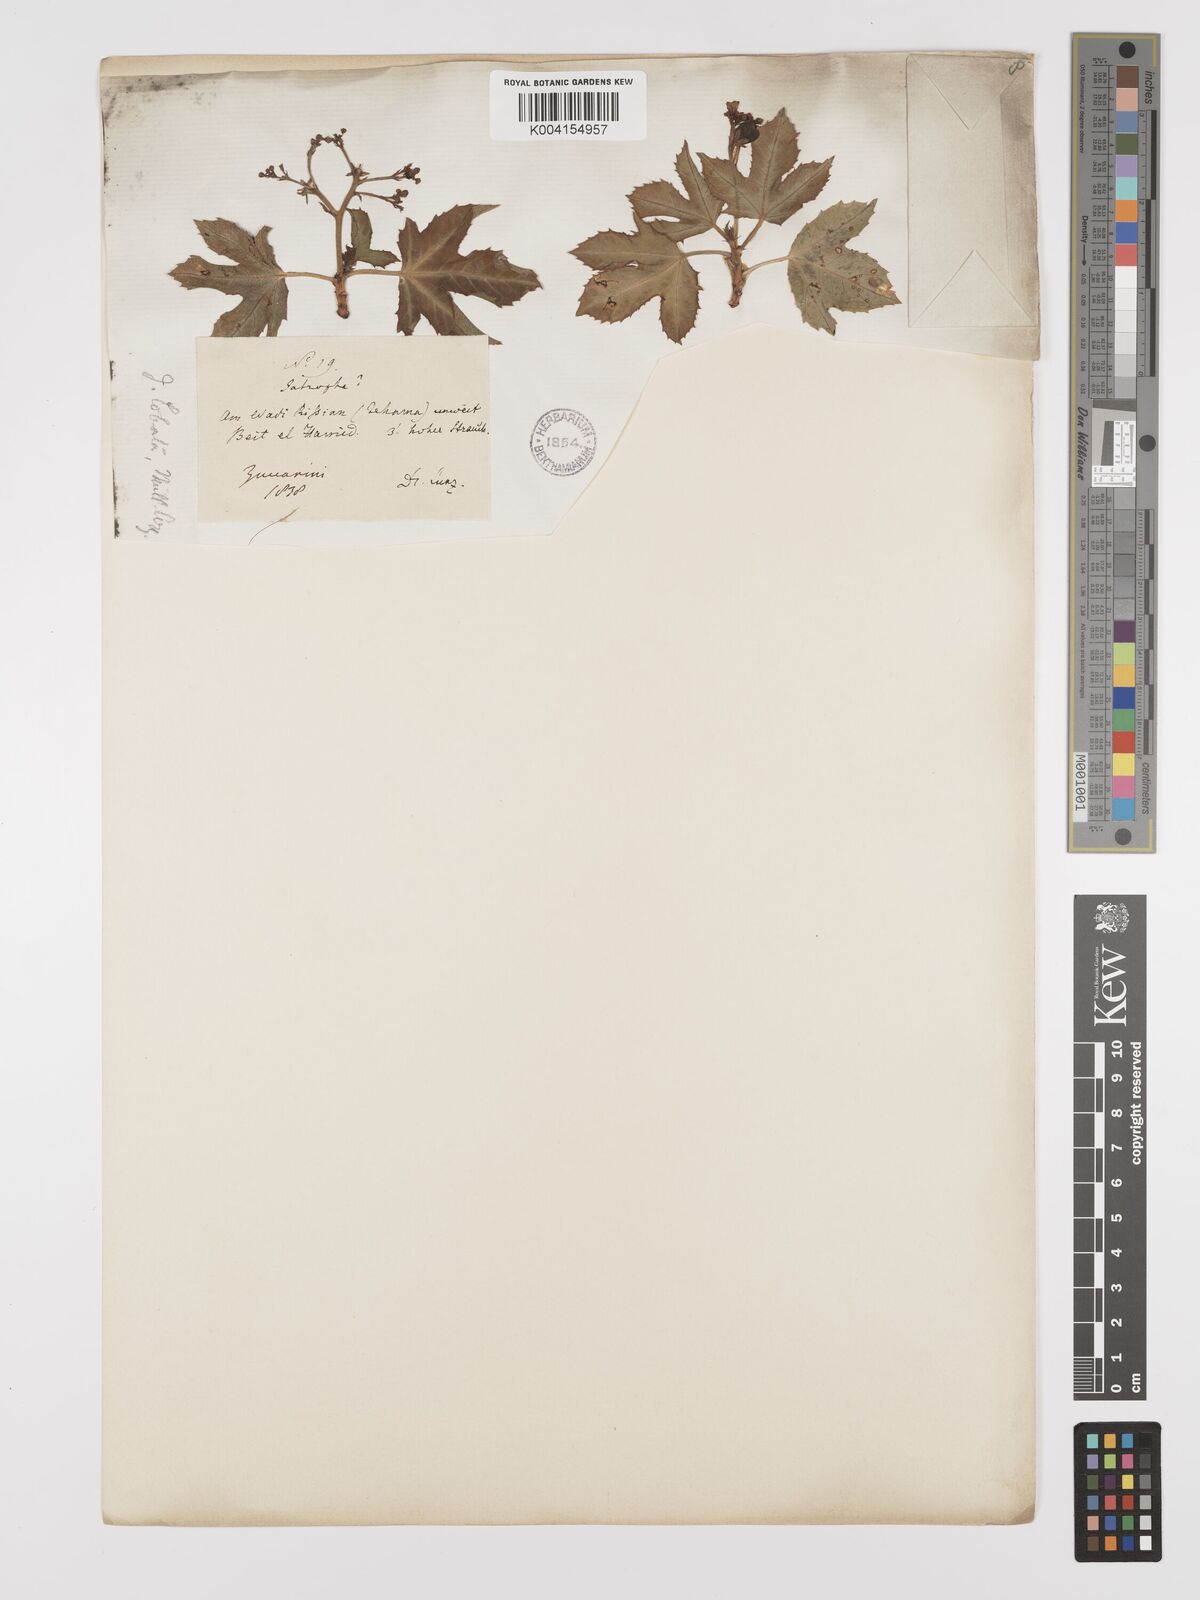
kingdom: Plantae
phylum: Tracheophyta
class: Magnoliopsida
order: Malpighiales
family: Euphorbiaceae
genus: Jatropha
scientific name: Jatropha glauca
